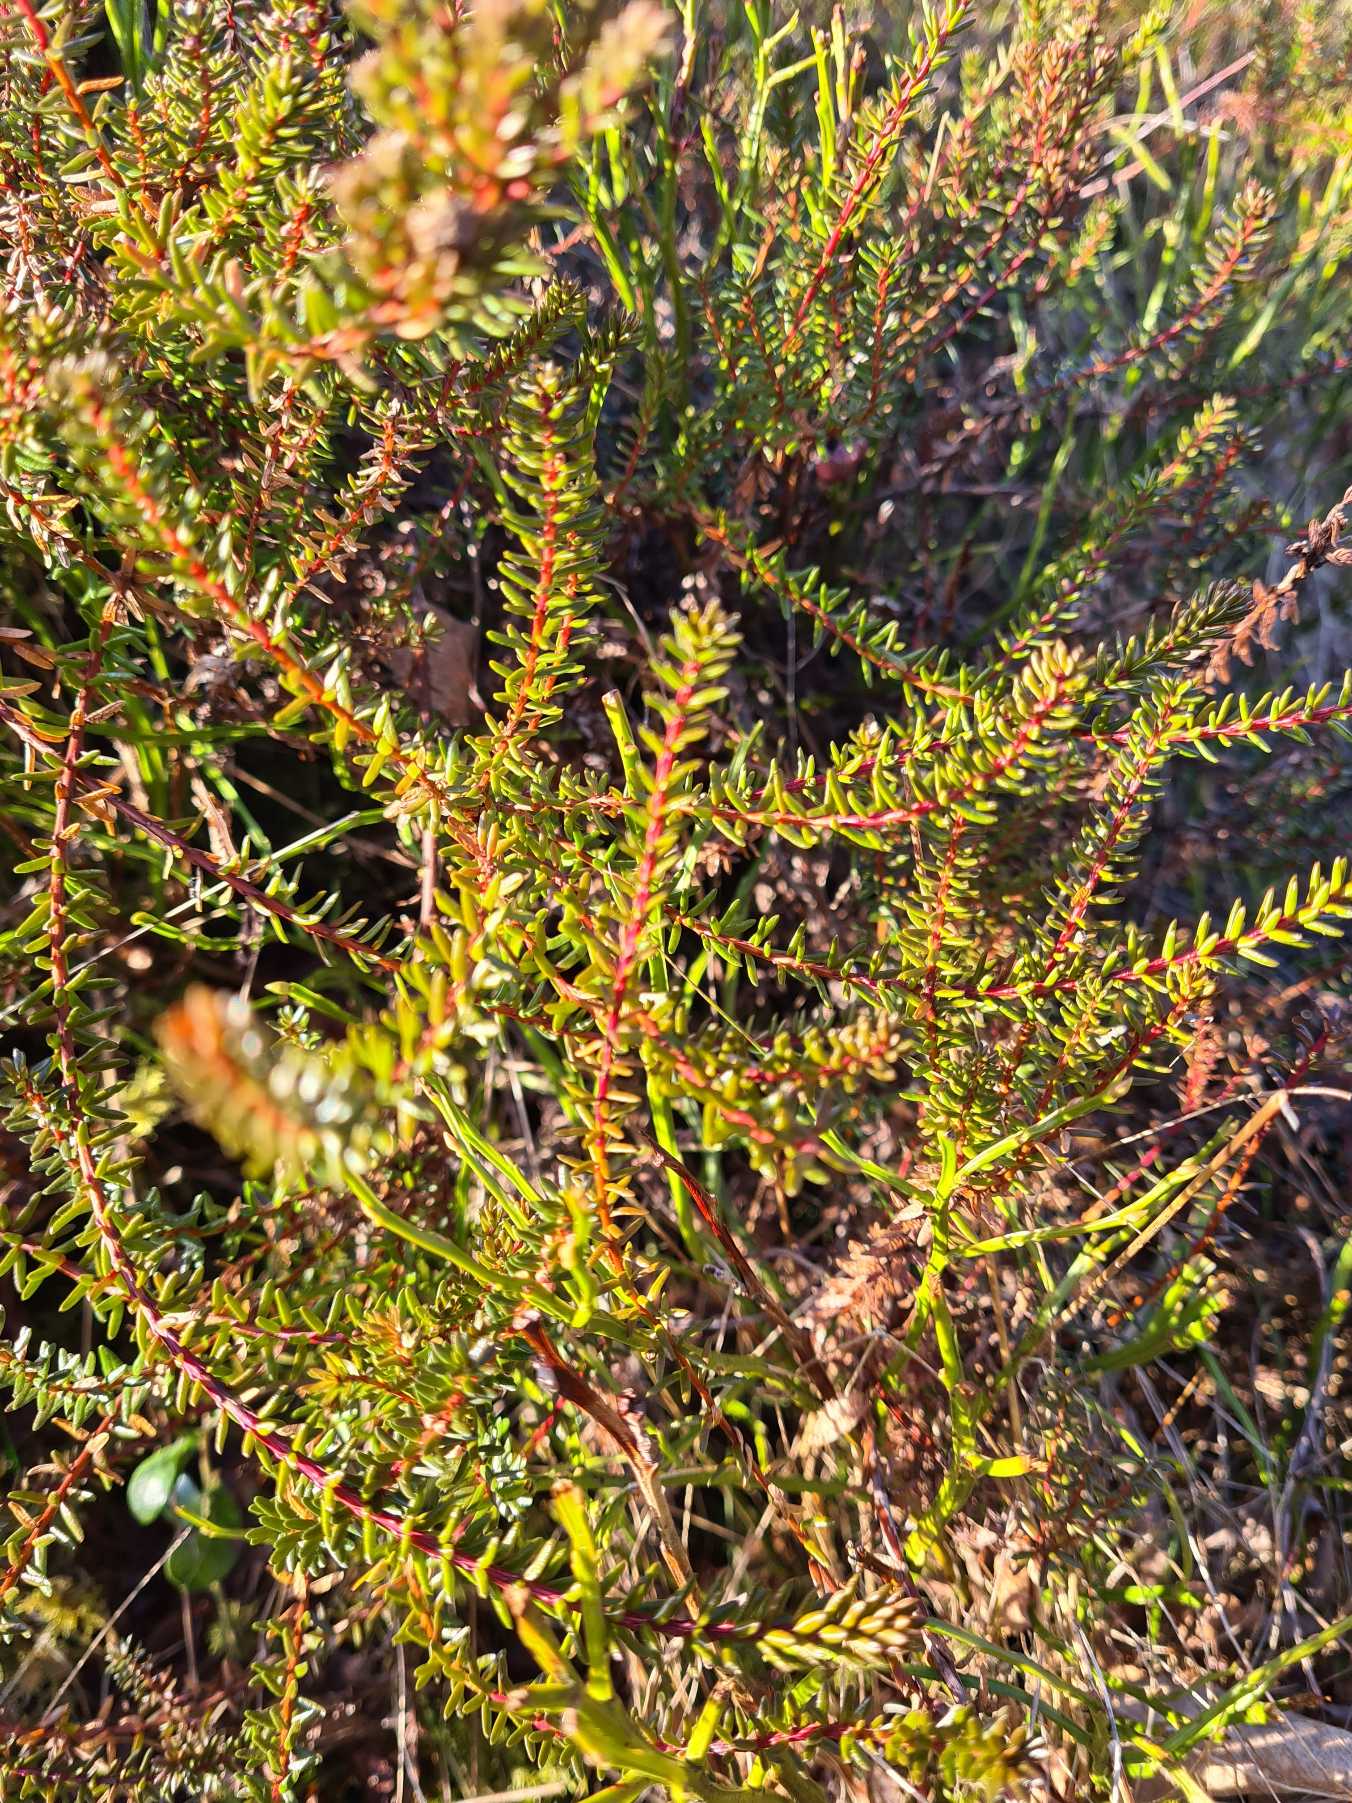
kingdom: Plantae
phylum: Tracheophyta
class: Magnoliopsida
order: Ericales
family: Ericaceae
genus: Empetrum
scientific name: Empetrum nigrum
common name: Revling
